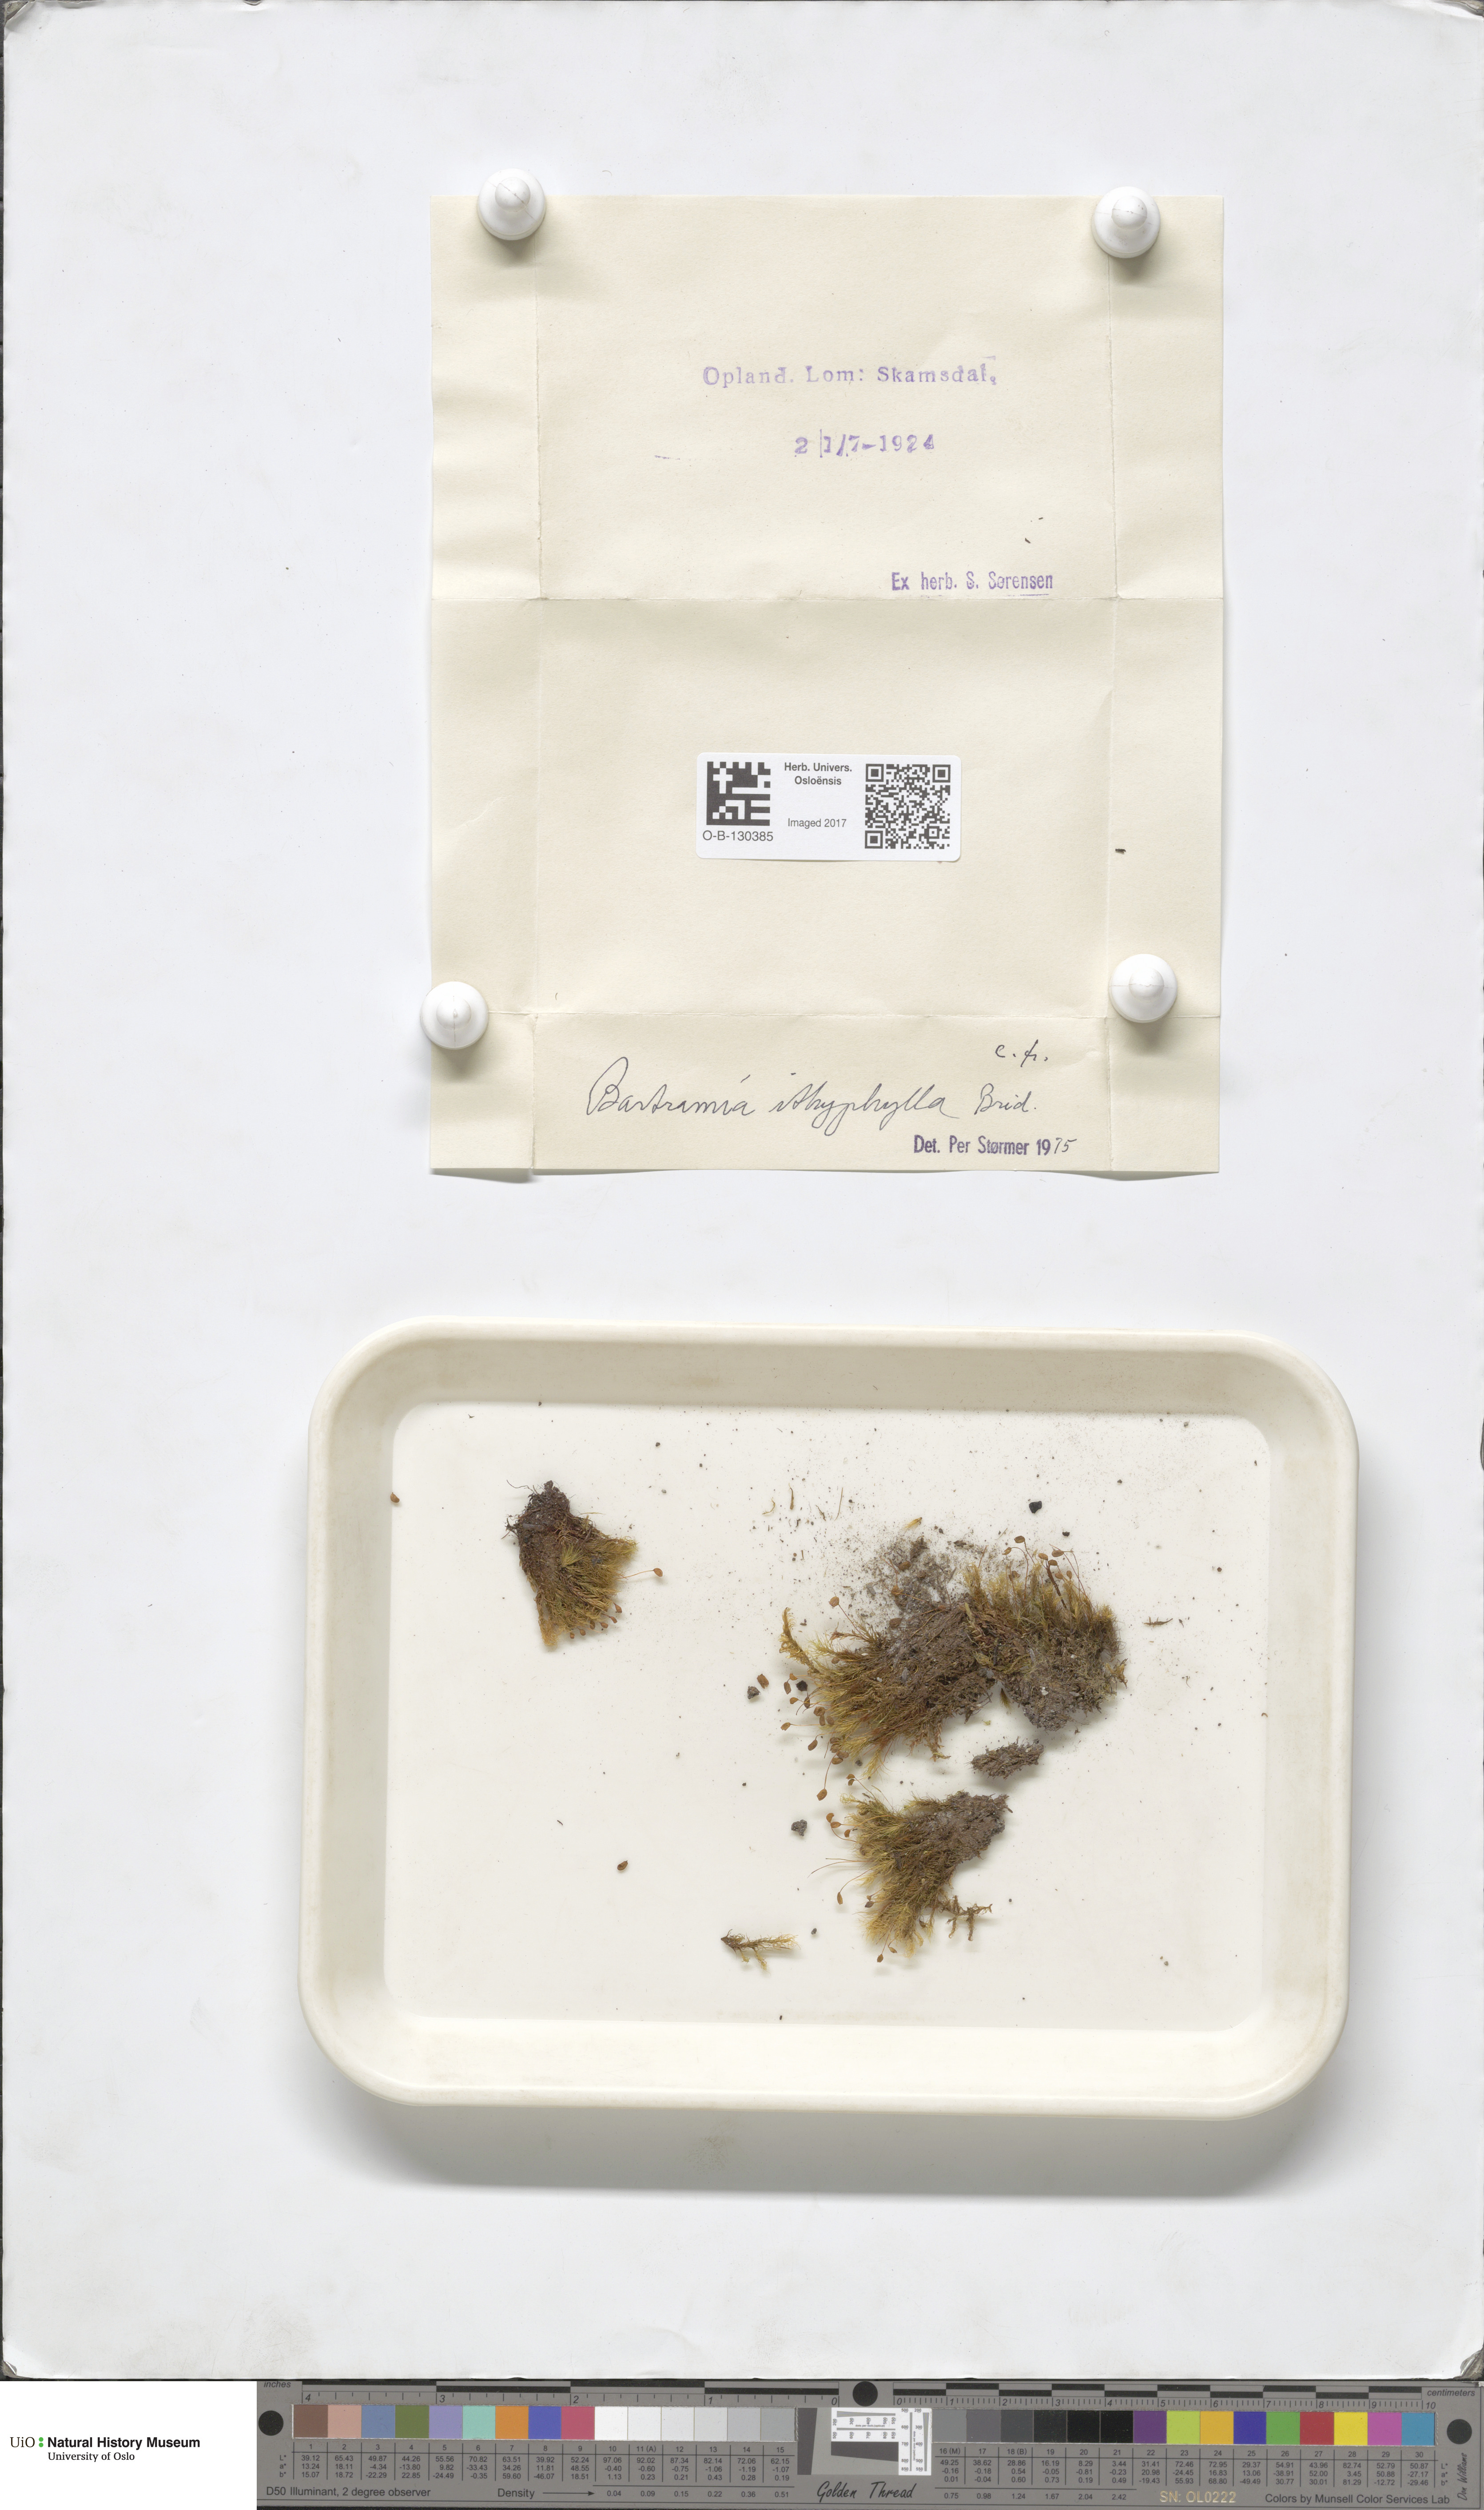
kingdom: Plantae
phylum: Bryophyta
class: Bryopsida
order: Bartramiales
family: Bartramiaceae
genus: Bartramia
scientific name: Bartramia ithyphylla
